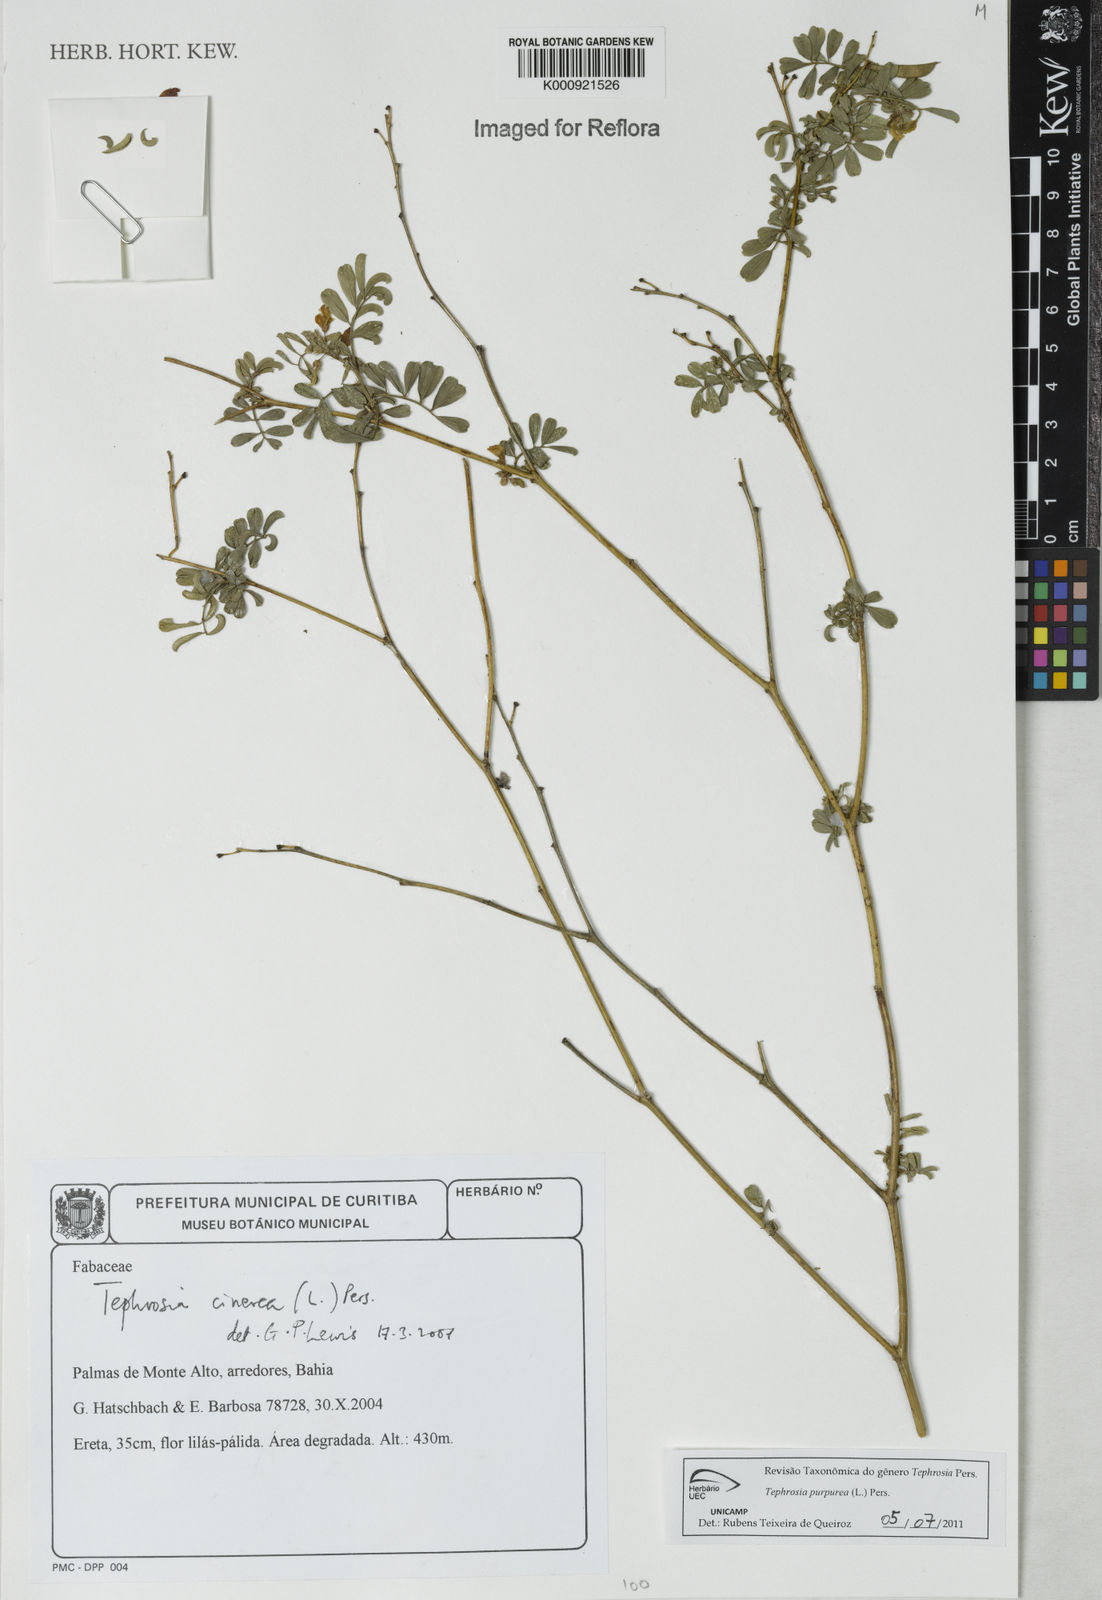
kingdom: Plantae
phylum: Tracheophyta
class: Magnoliopsida
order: Fabales
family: Fabaceae
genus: Tephrosia
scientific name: Tephrosia purpurea
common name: Fishpoison
